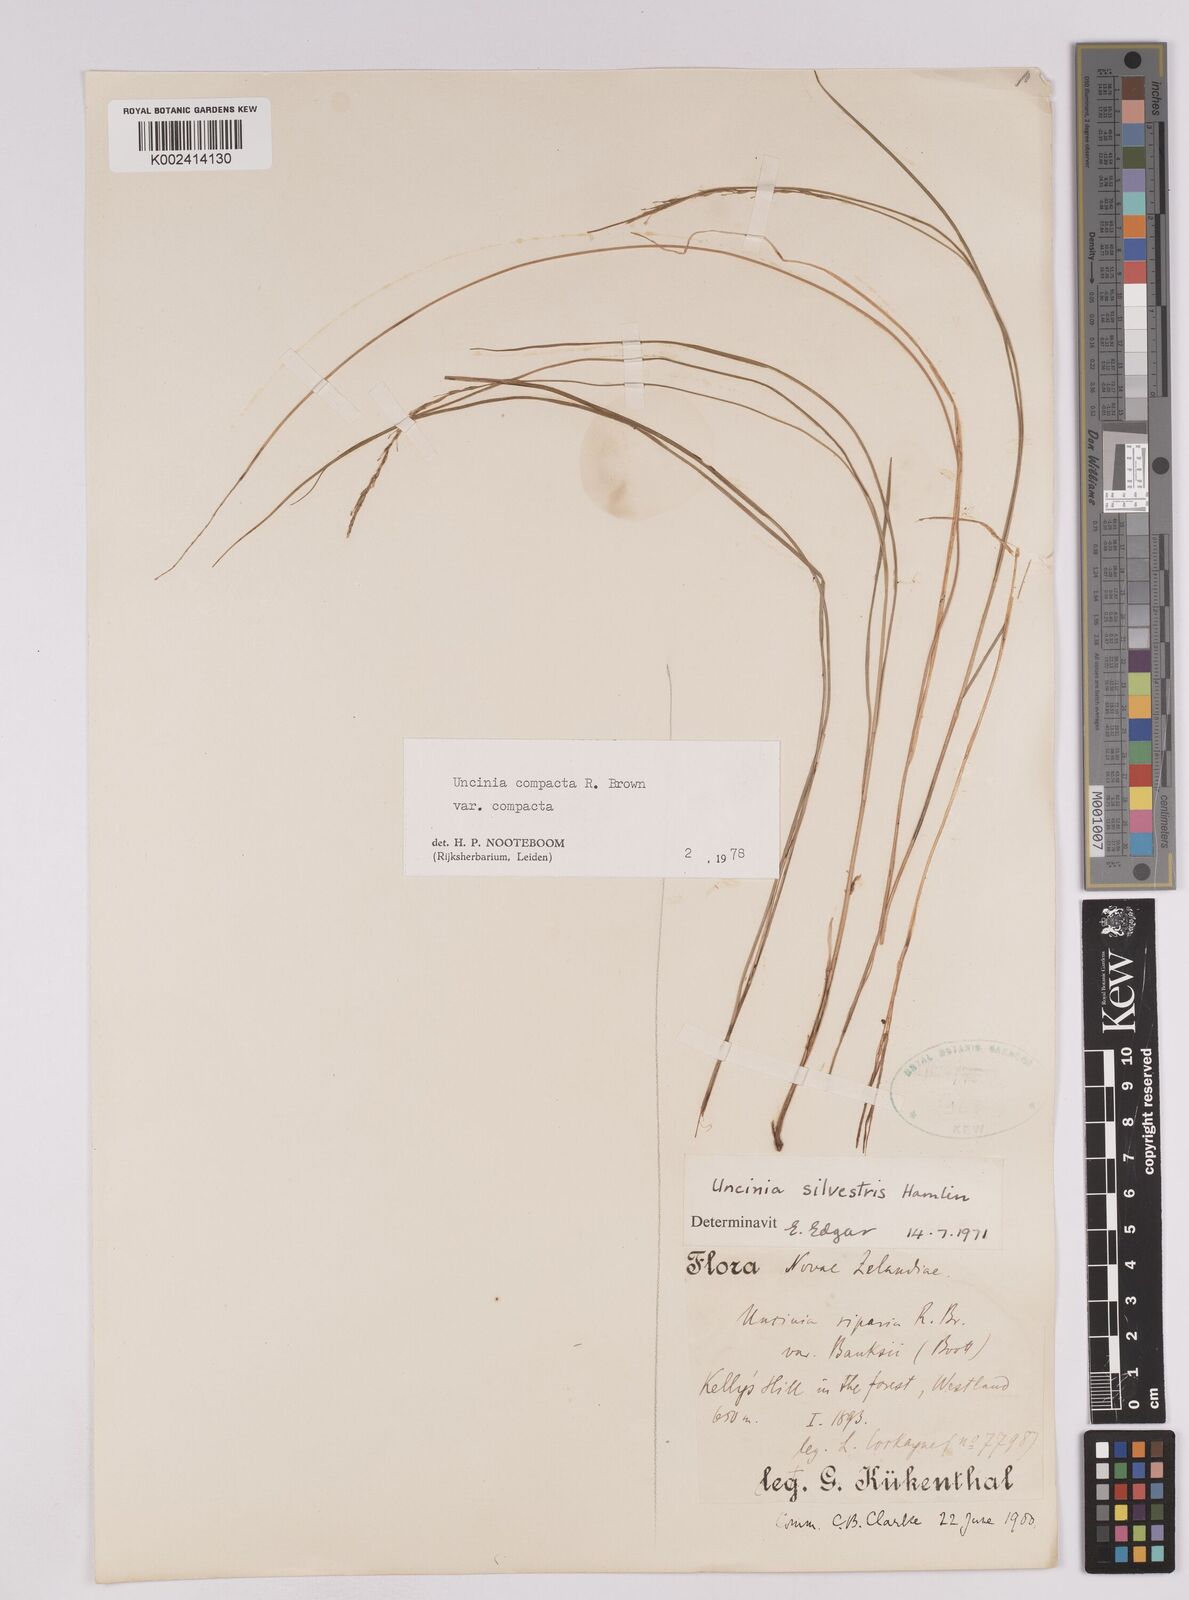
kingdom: Plantae
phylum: Tracheophyta
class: Liliopsida
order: Poales
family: Cyperaceae
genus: Carex
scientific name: Carex austrocompacta
